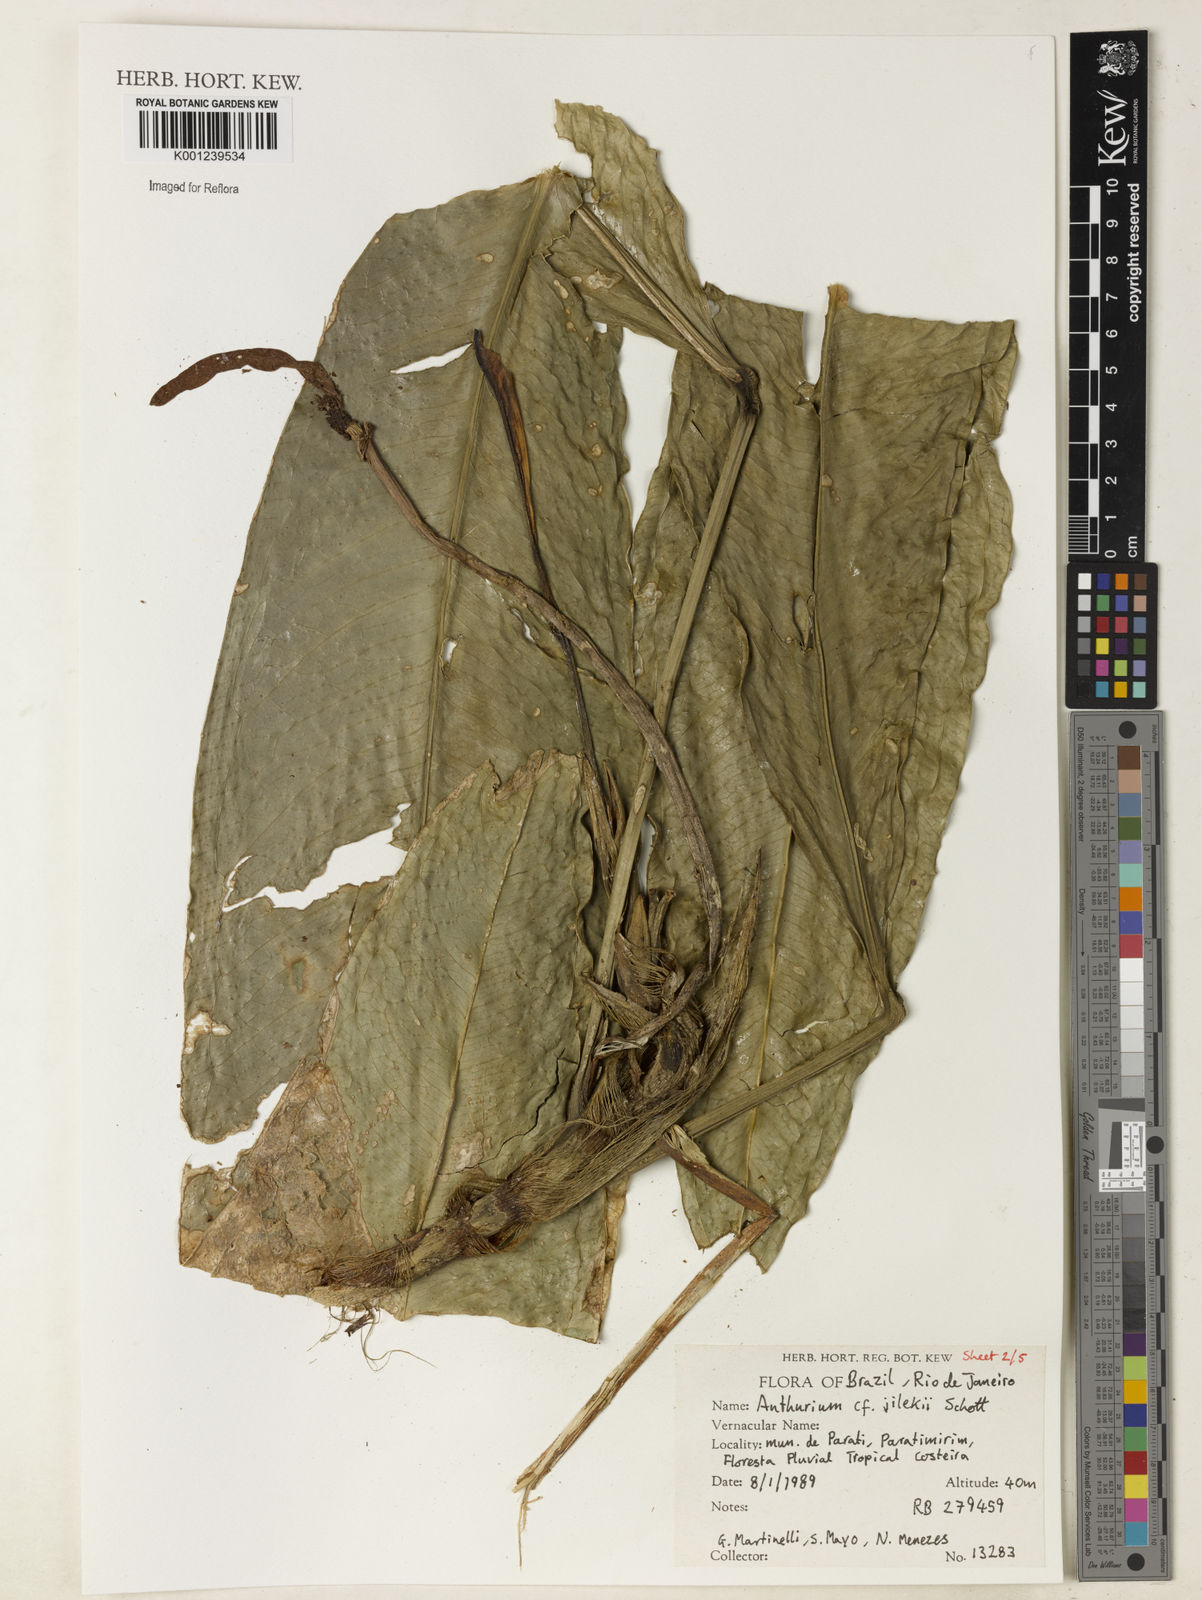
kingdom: Plantae
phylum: Tracheophyta
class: Liliopsida
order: Alismatales
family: Araceae
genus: Anthurium
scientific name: Anthurium jilekii
